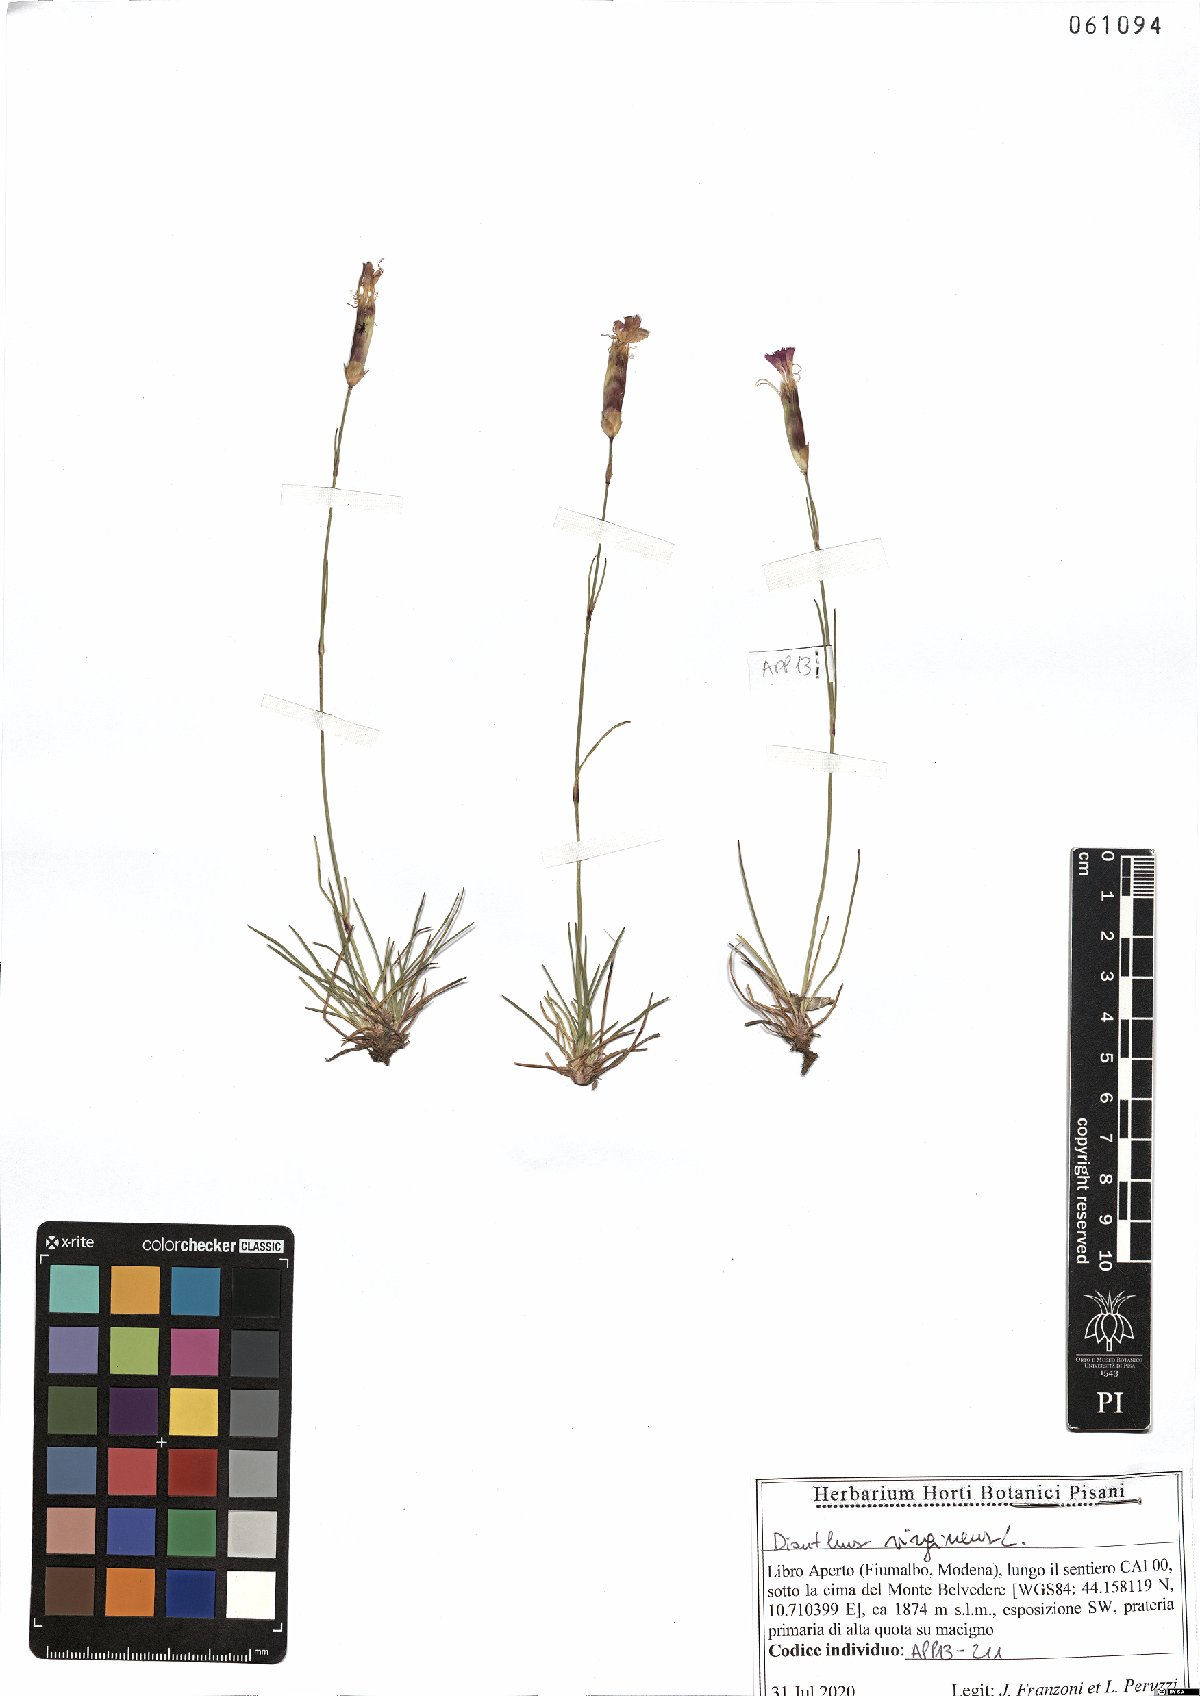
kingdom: Plantae
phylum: Tracheophyta
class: Magnoliopsida
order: Caryophyllales
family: Caryophyllaceae
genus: Dianthus
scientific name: Dianthus virgineus
